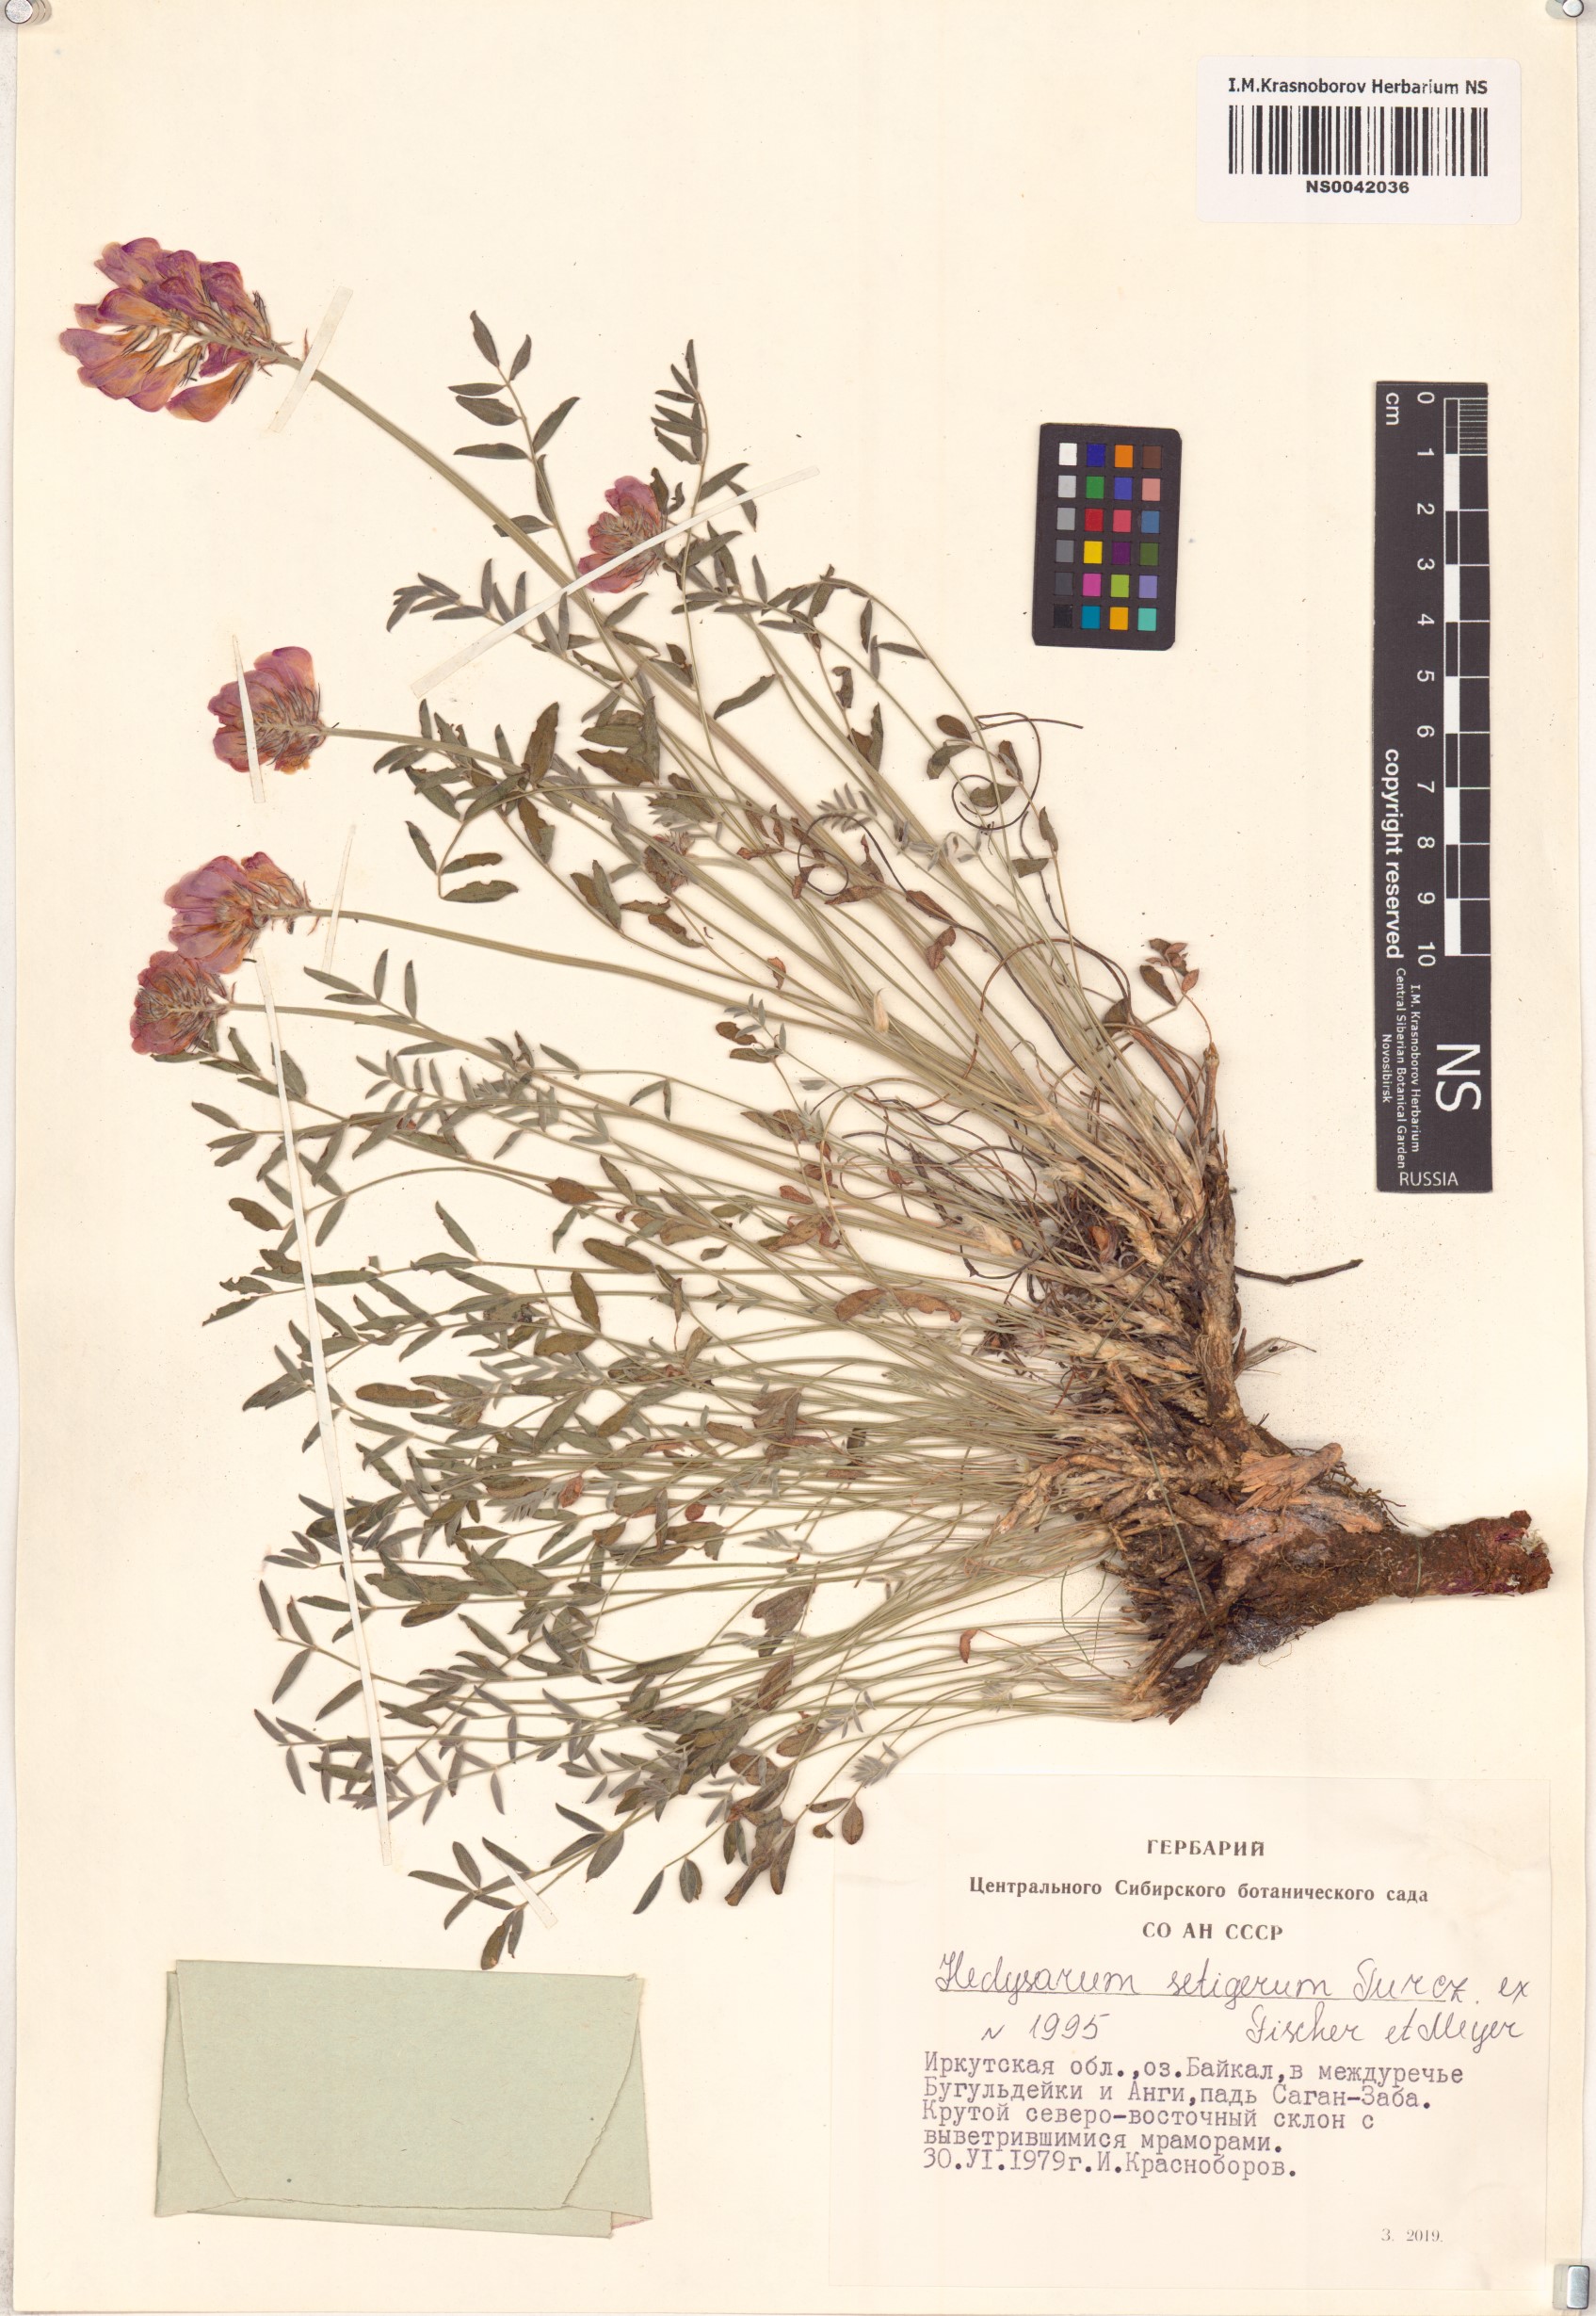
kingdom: Plantae
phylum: Tracheophyta
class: Magnoliopsida
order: Fabales
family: Fabaceae
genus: Hedysarum
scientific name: Hedysarum setigerum
